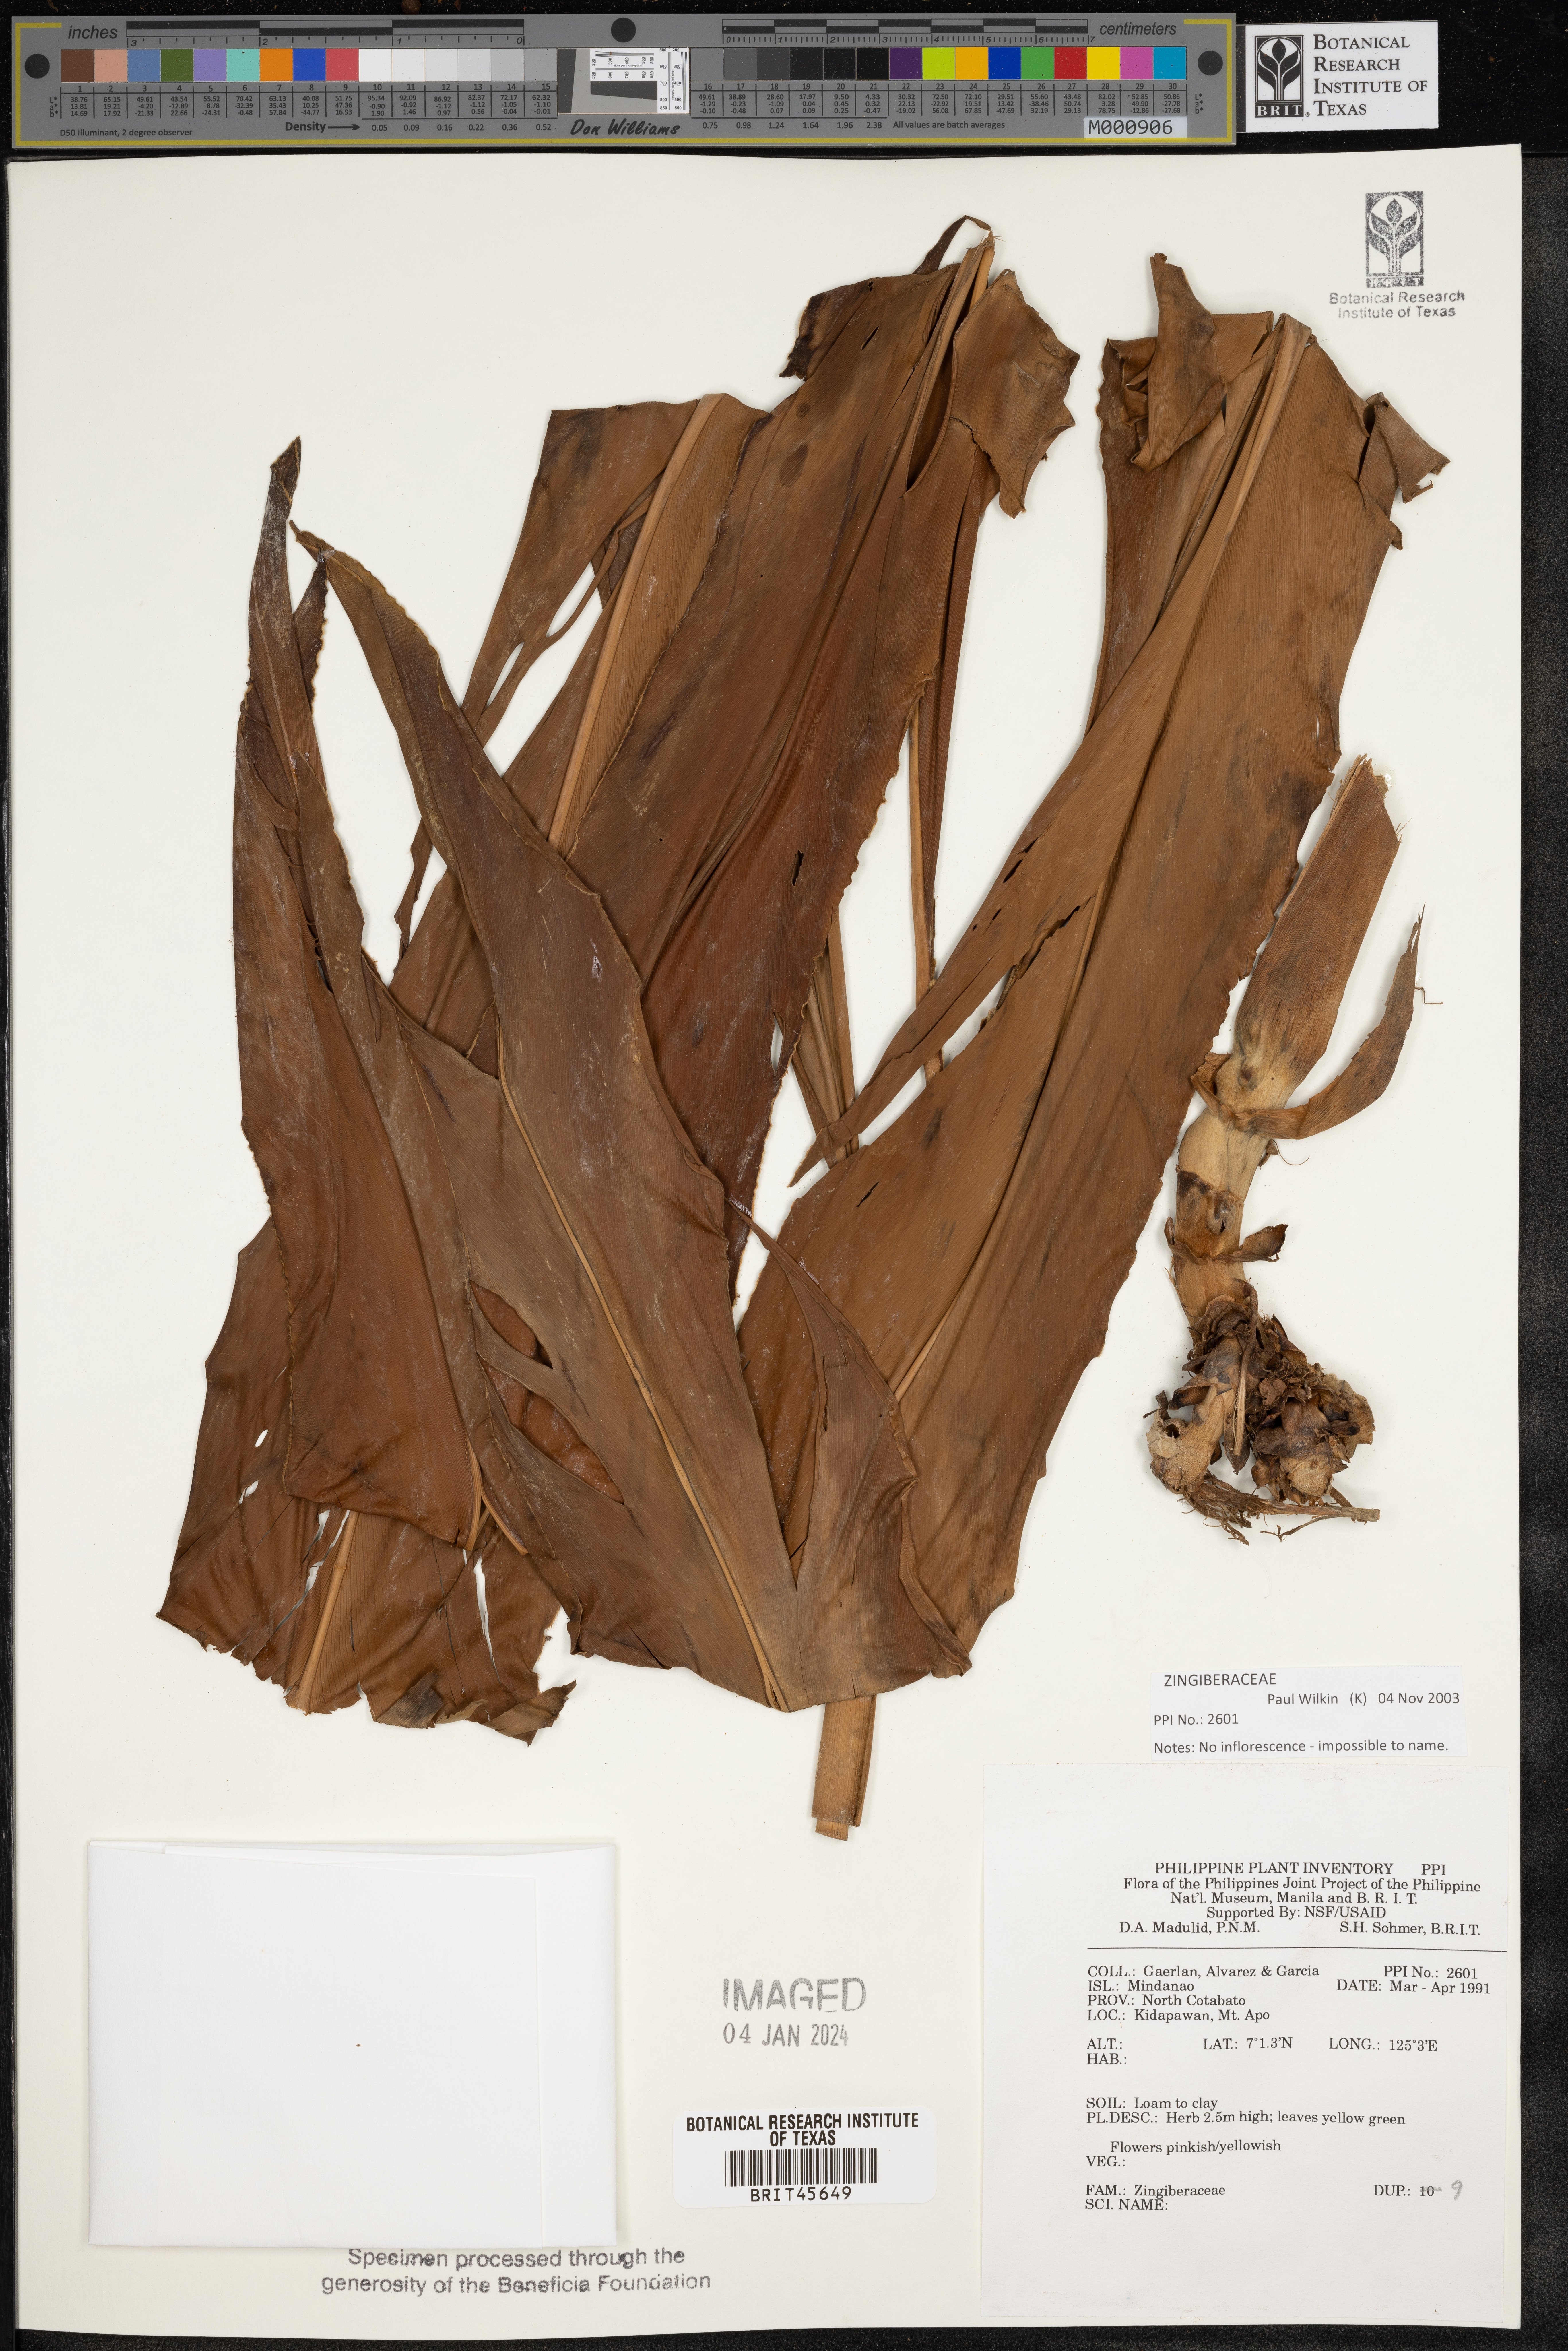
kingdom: Plantae
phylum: Tracheophyta
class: Liliopsida
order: Zingiberales
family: Zingiberaceae
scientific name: Zingiberaceae
